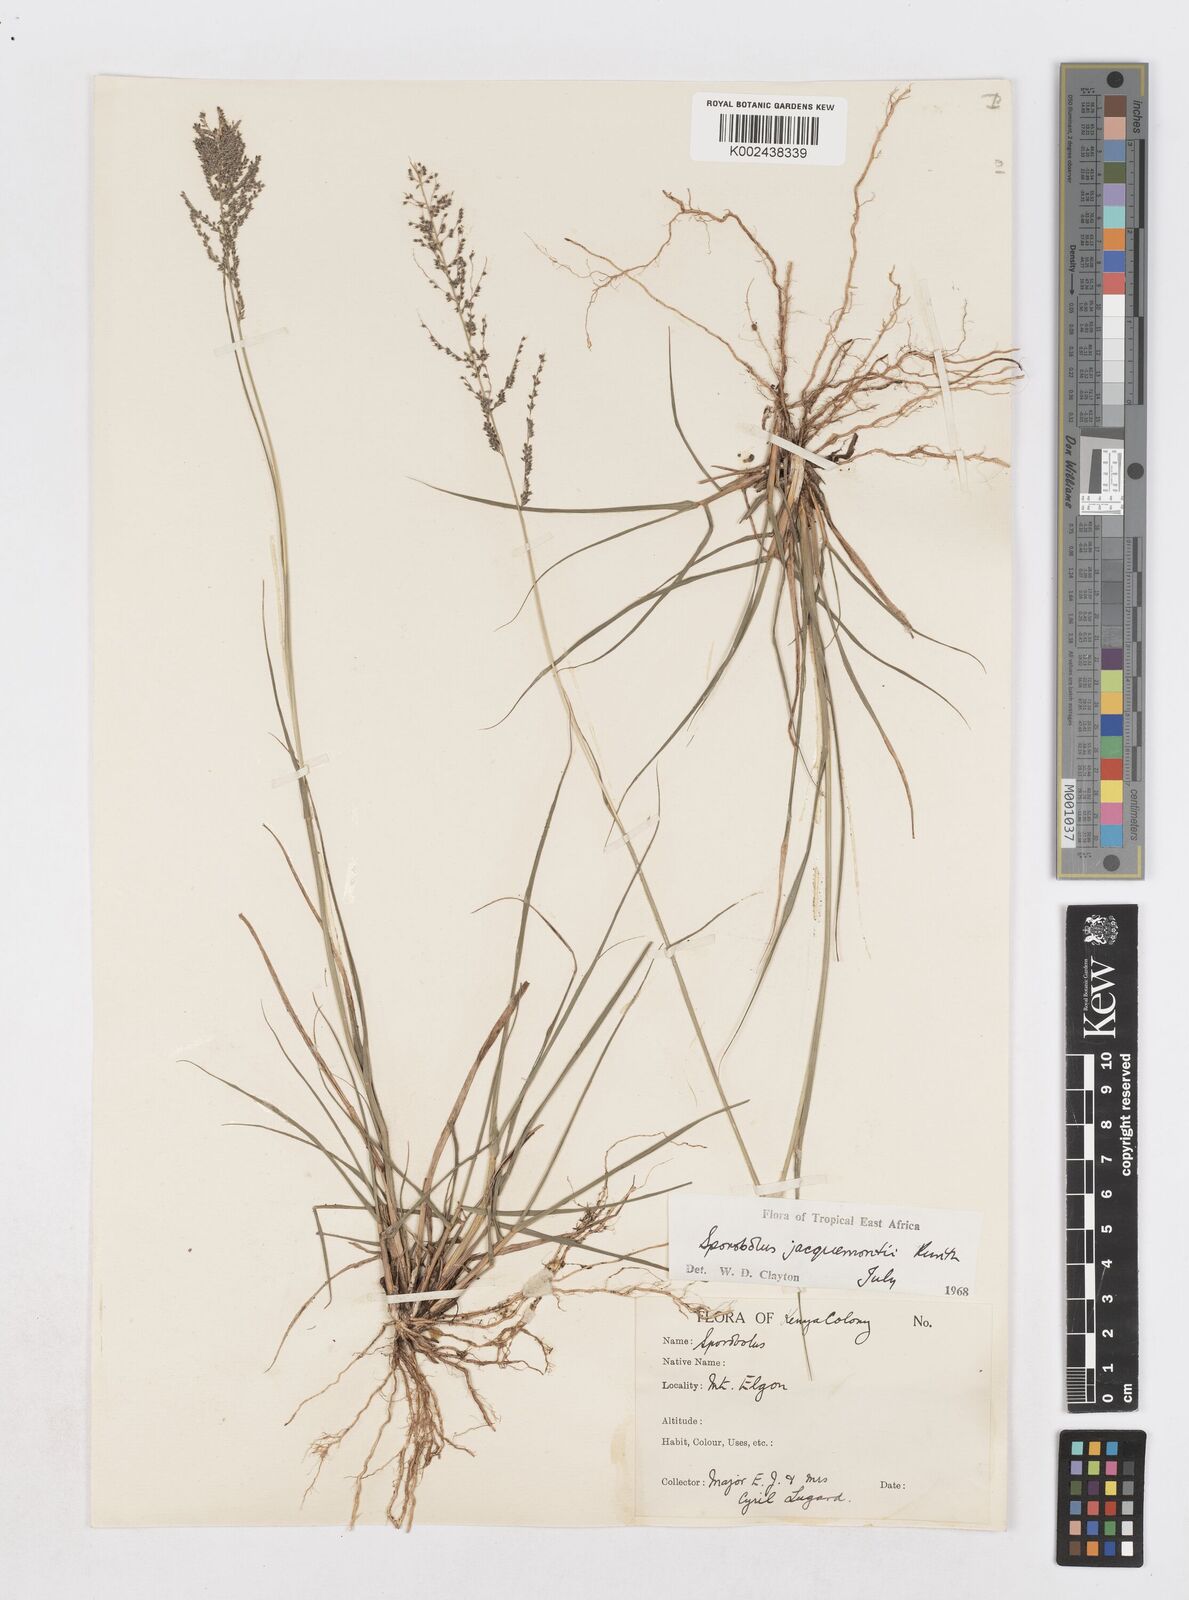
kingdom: Plantae
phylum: Tracheophyta
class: Liliopsida
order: Poales
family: Poaceae
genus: Sporobolus
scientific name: Sporobolus pyramidalis
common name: West indian dropseed
